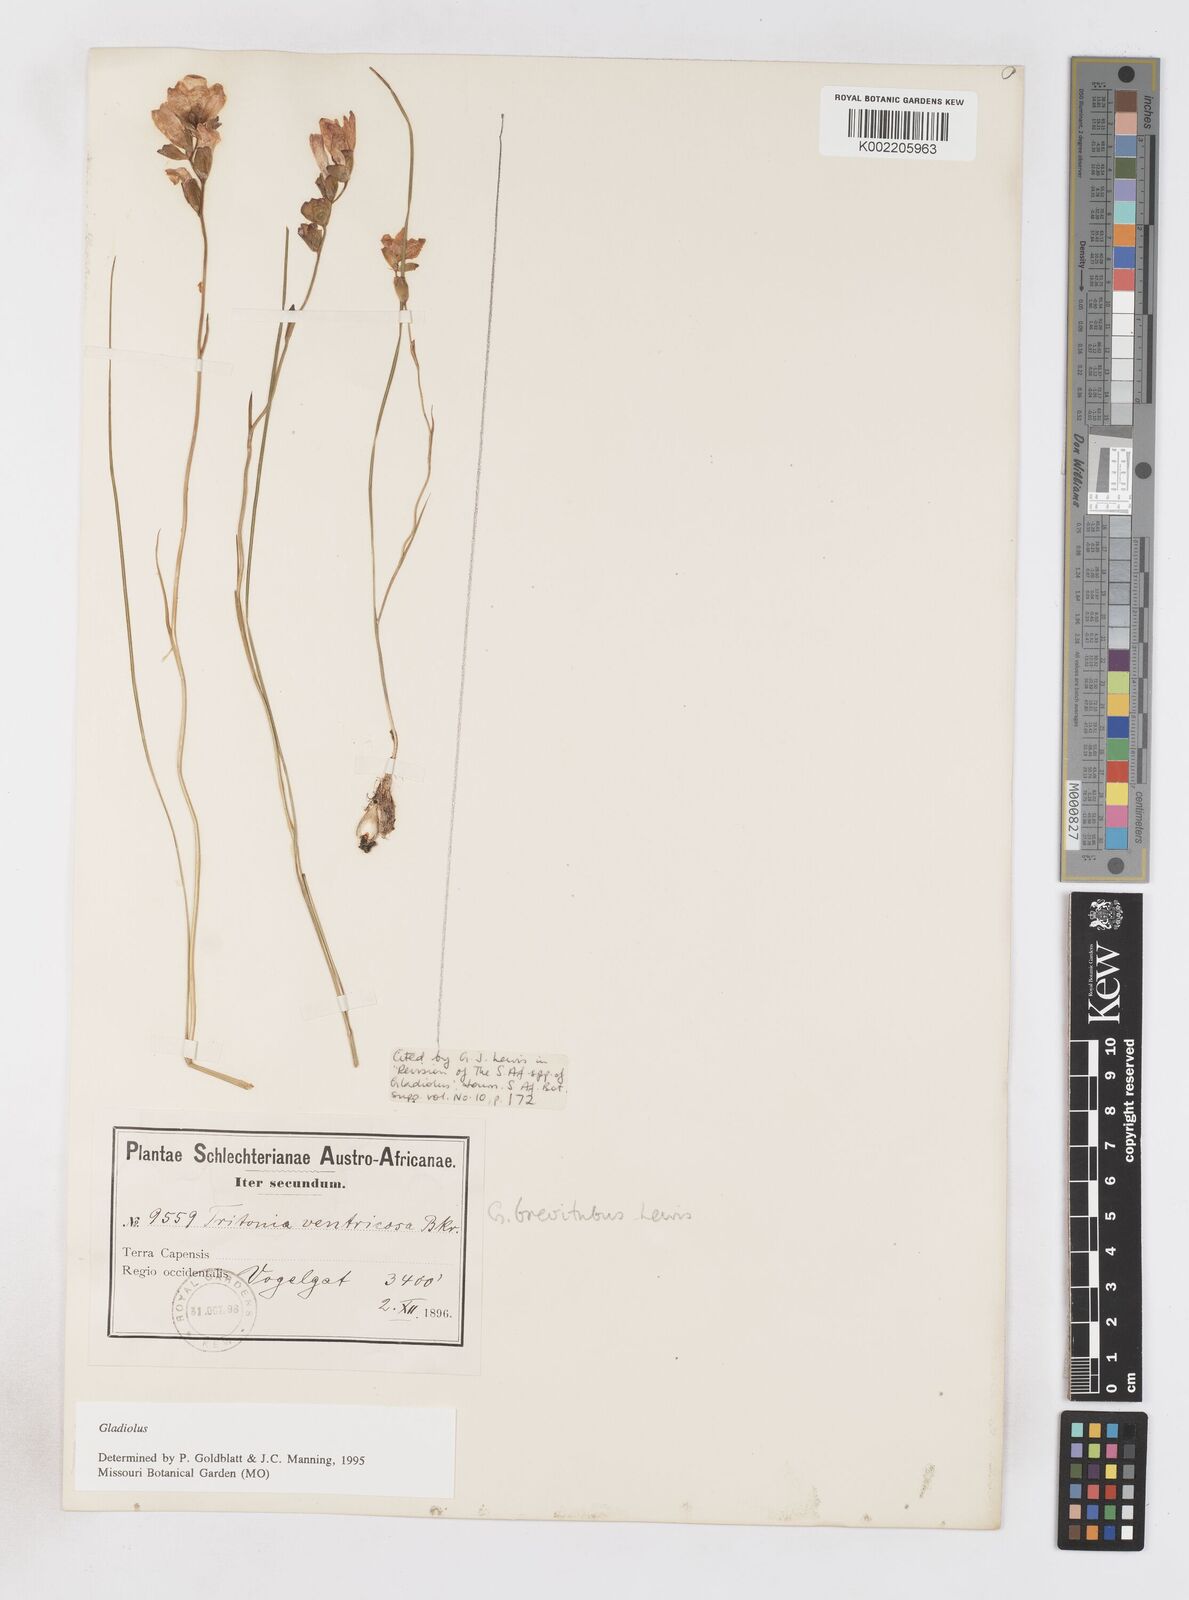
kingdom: Plantae
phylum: Tracheophyta
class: Liliopsida
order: Asparagales
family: Iridaceae
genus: Gladiolus
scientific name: Gladiolus brevitubus
